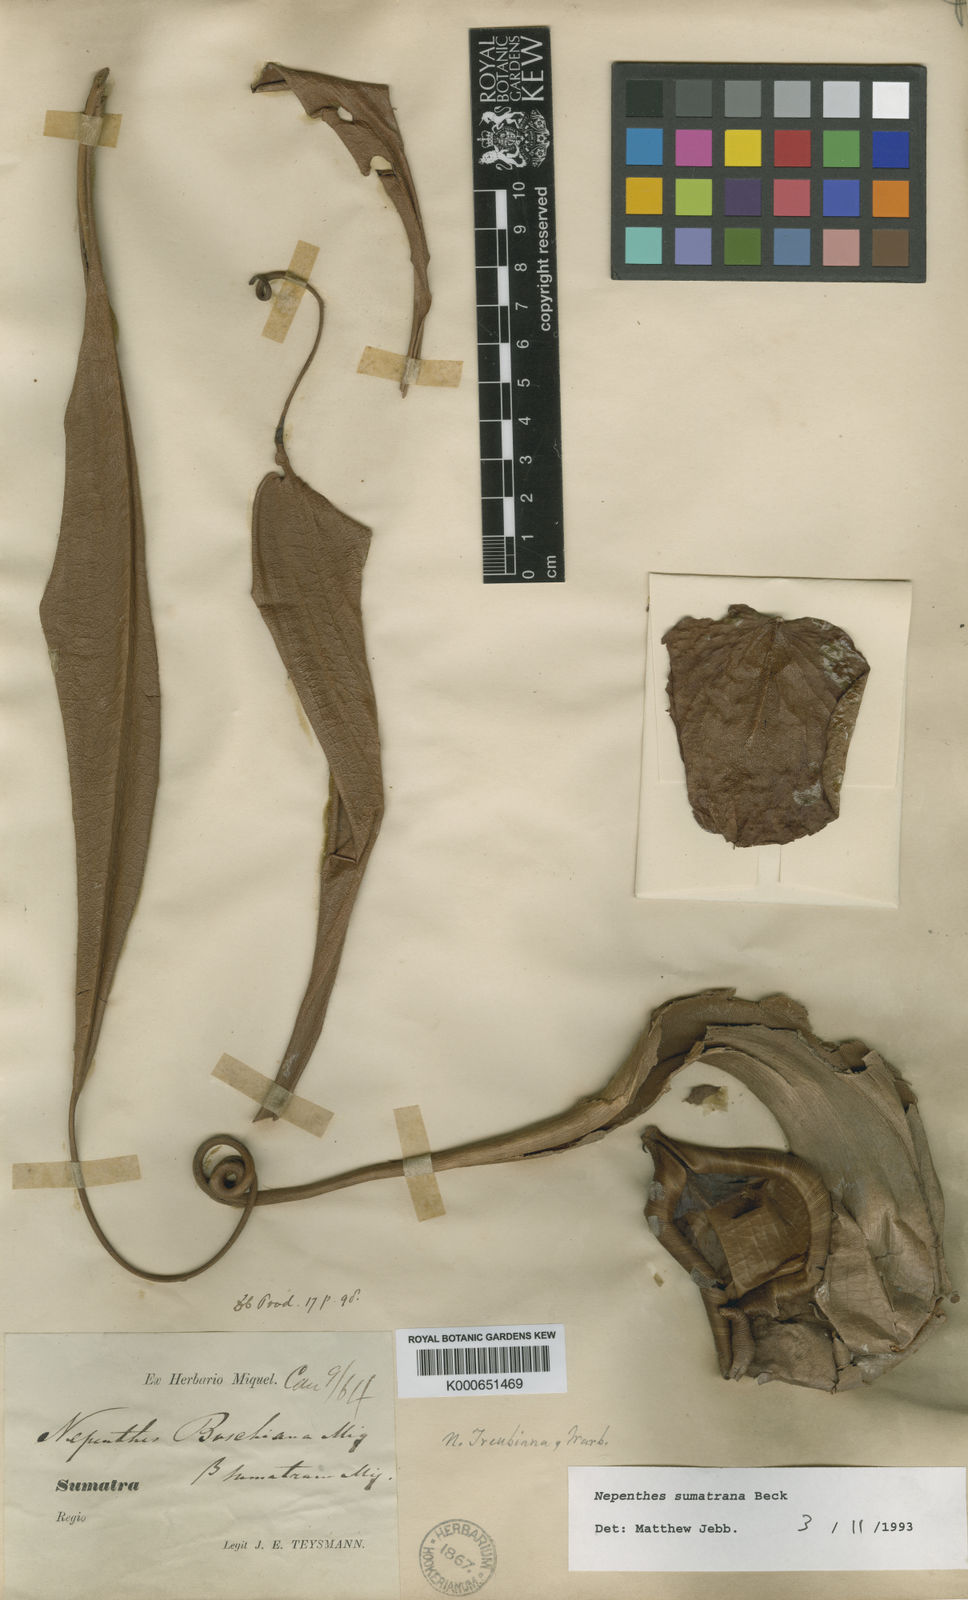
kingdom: Plantae
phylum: Tracheophyta
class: Magnoliopsida
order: Caryophyllales
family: Nepenthaceae
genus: Nepenthes
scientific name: Nepenthes
